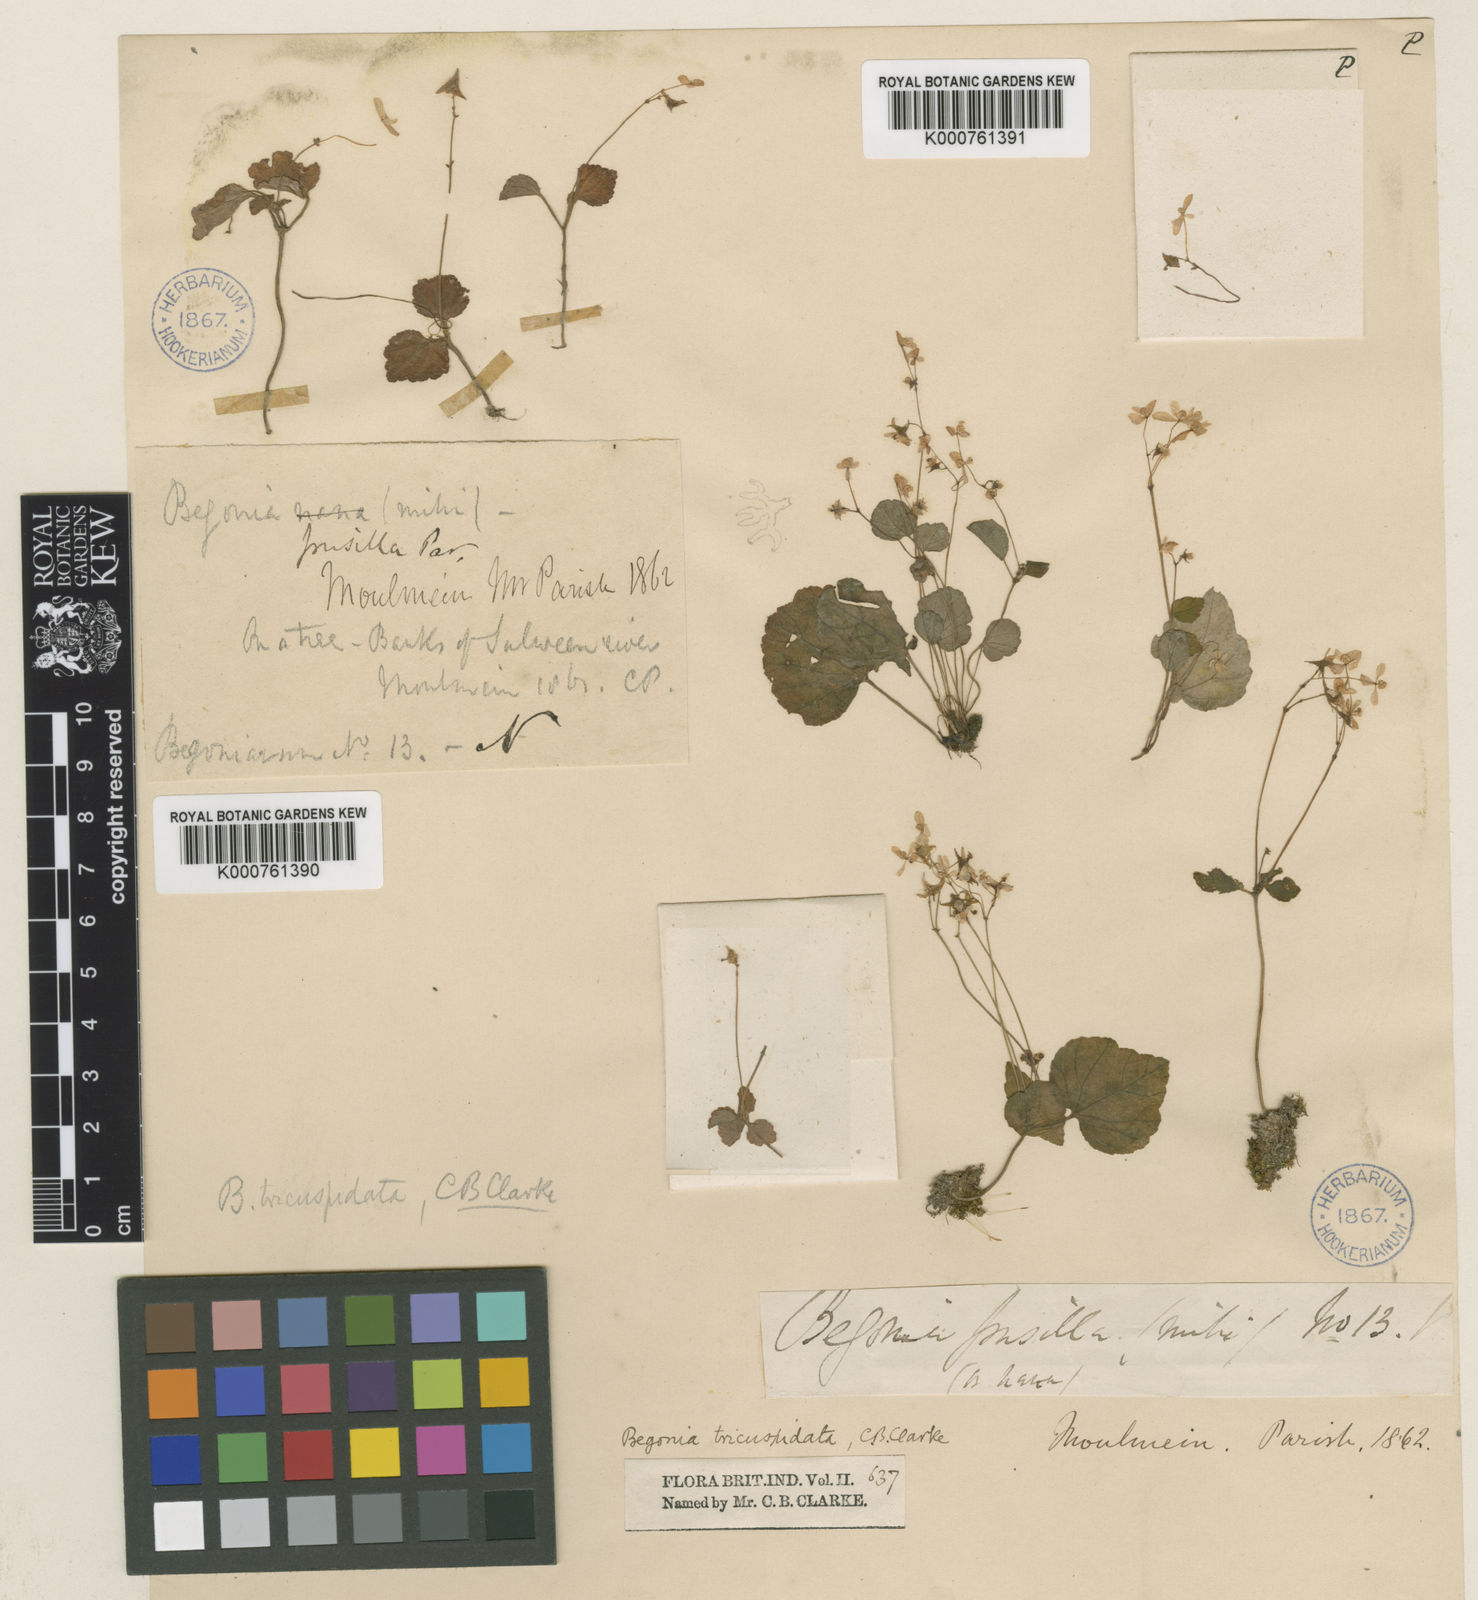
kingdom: Plantae
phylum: Tracheophyta
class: Magnoliopsida
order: Cucurbitales
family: Begoniaceae
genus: Begonia
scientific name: Begonia tricuspidata
